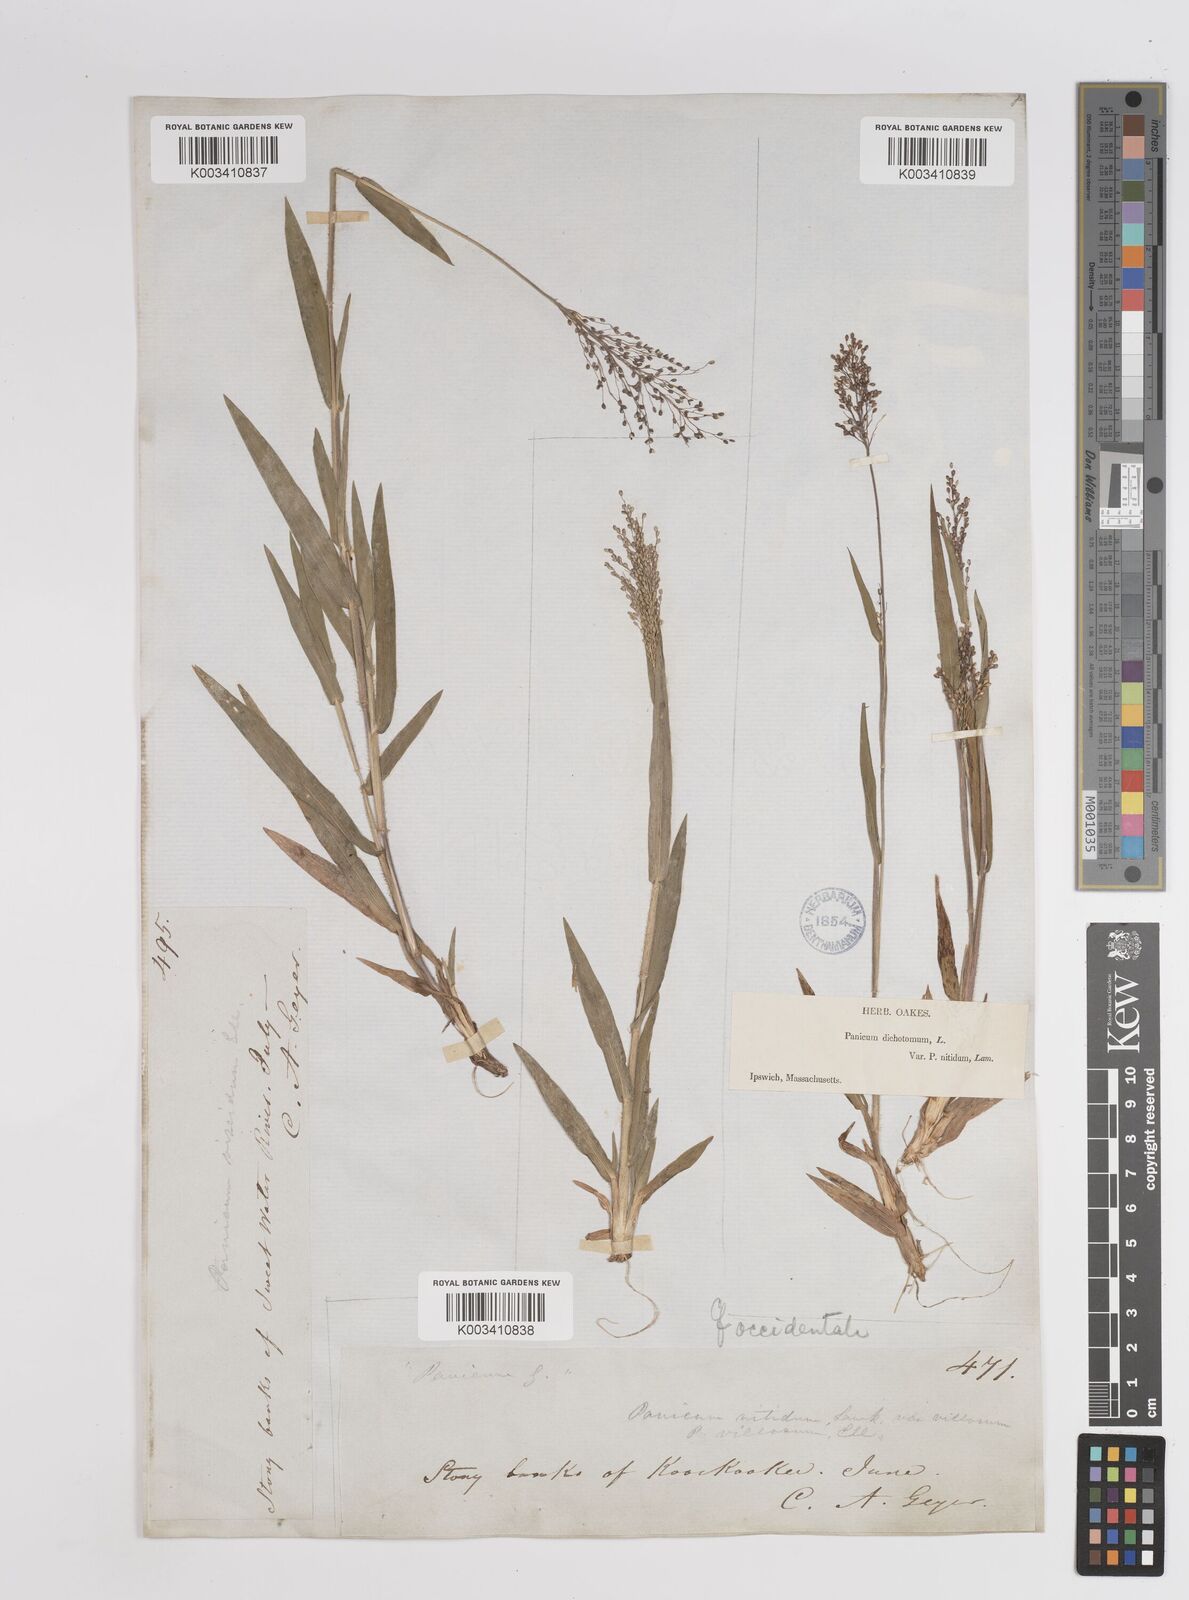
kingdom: Plantae
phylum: Tracheophyta
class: Liliopsida
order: Poales
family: Poaceae
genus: Dichanthelium
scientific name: Dichanthelium implicatum
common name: Slender-stemmed panicgrass
